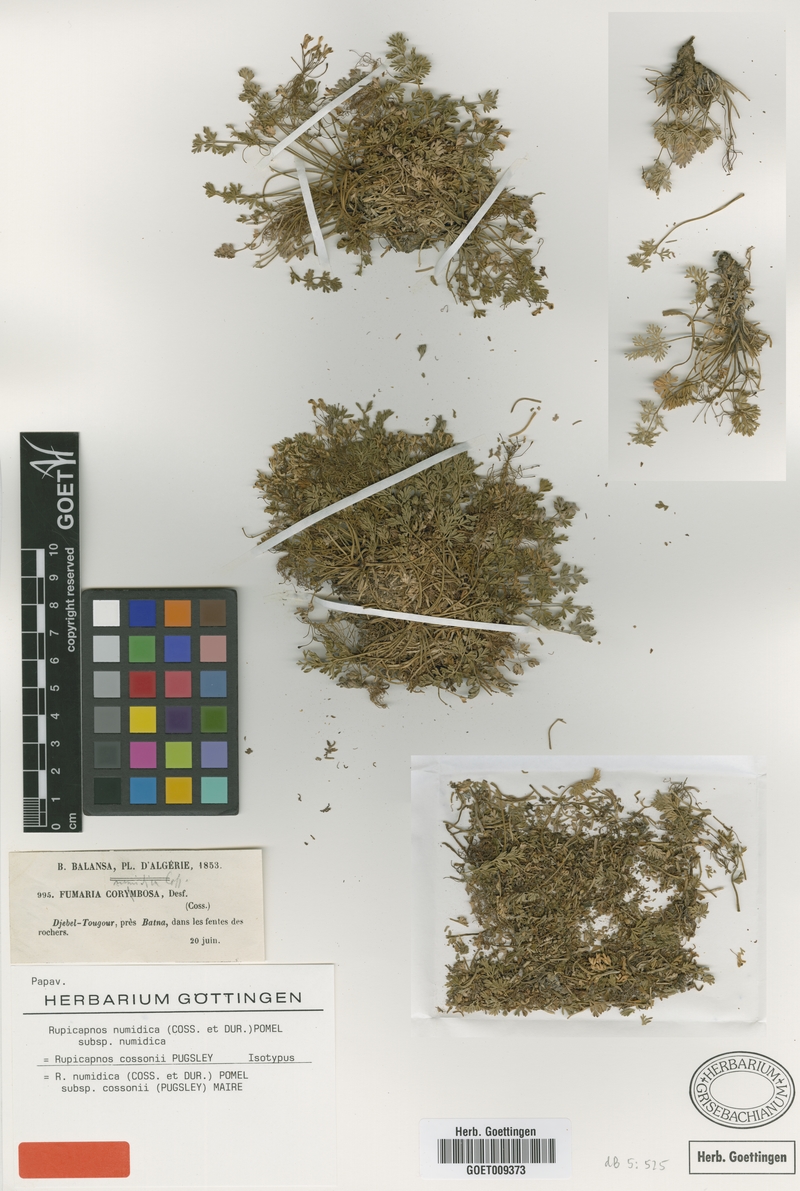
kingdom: Plantae
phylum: Tracheophyta
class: Magnoliopsida
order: Ranunculales
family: Papaveraceae
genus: Rupicapnos
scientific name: Rupicapnos numidica
